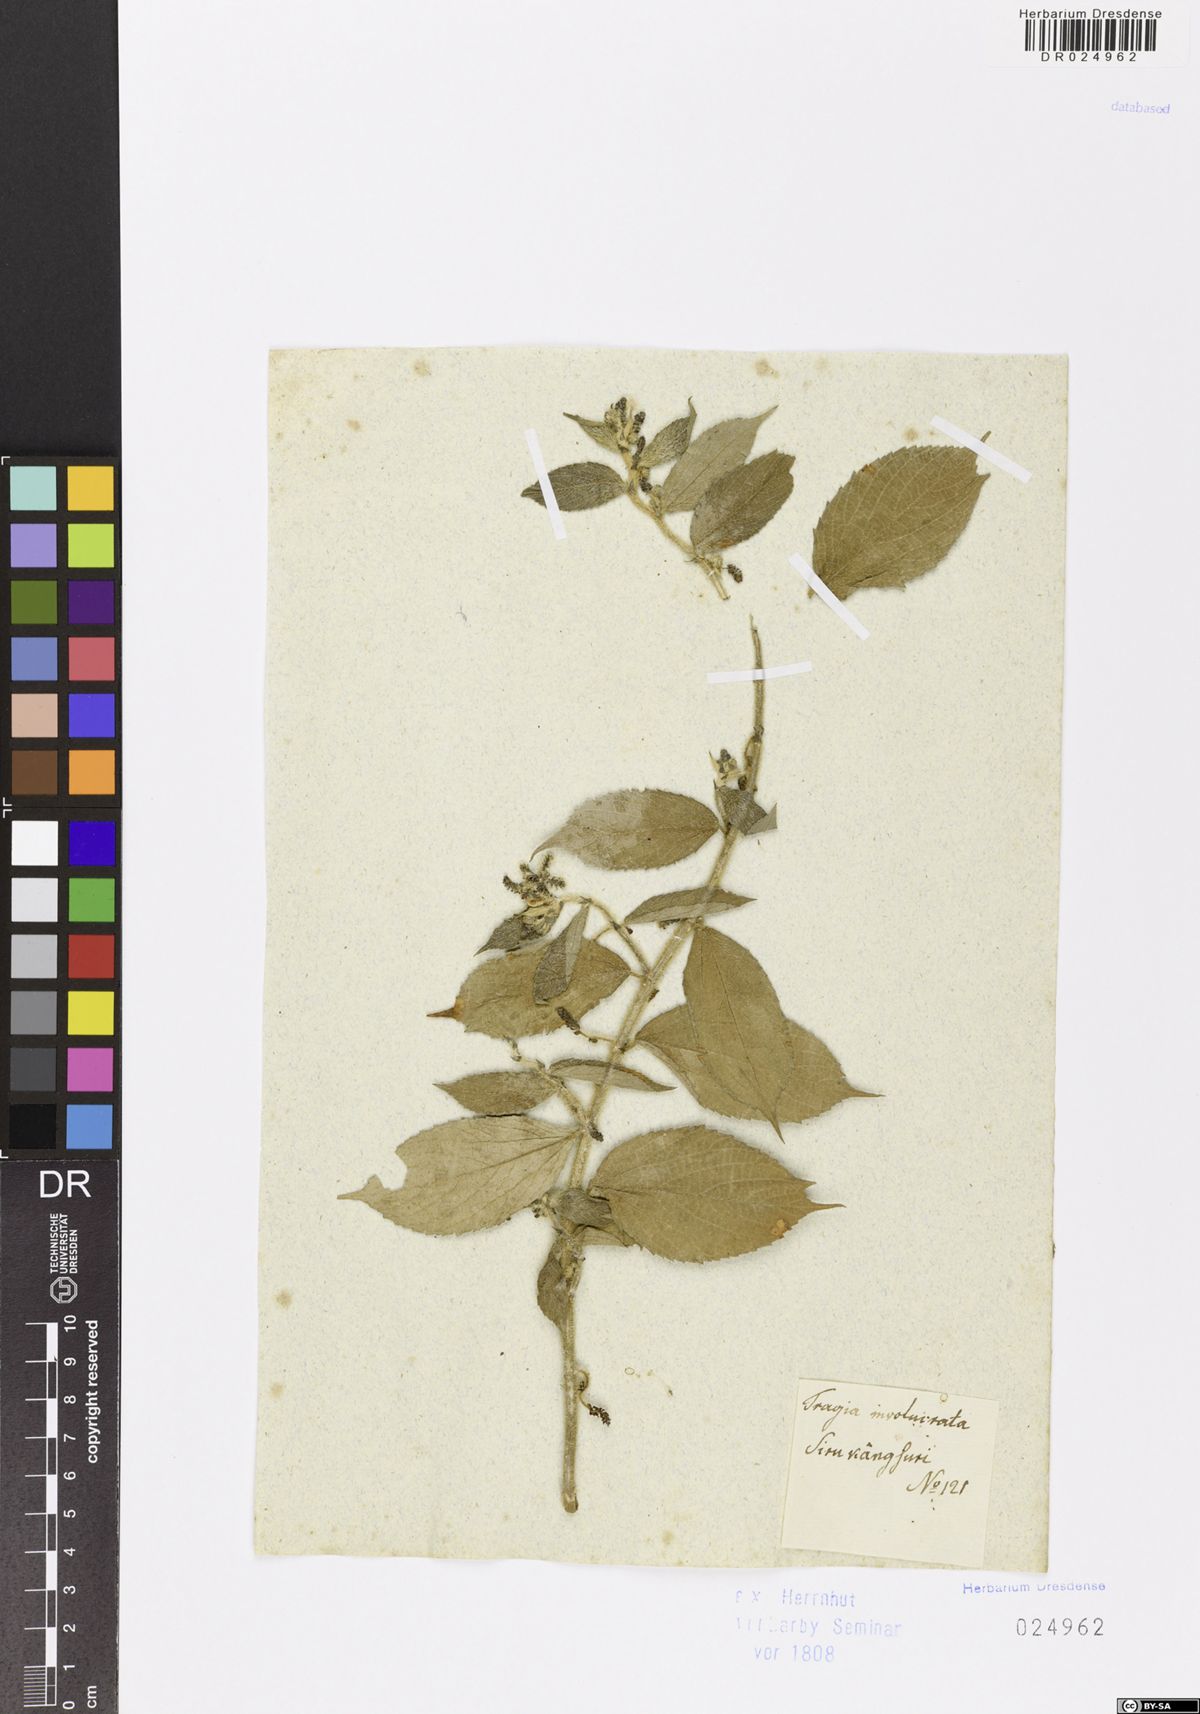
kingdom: Plantae
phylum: Tracheophyta
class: Magnoliopsida
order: Malpighiales
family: Euphorbiaceae
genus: Tragia
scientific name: Tragia involucrata
